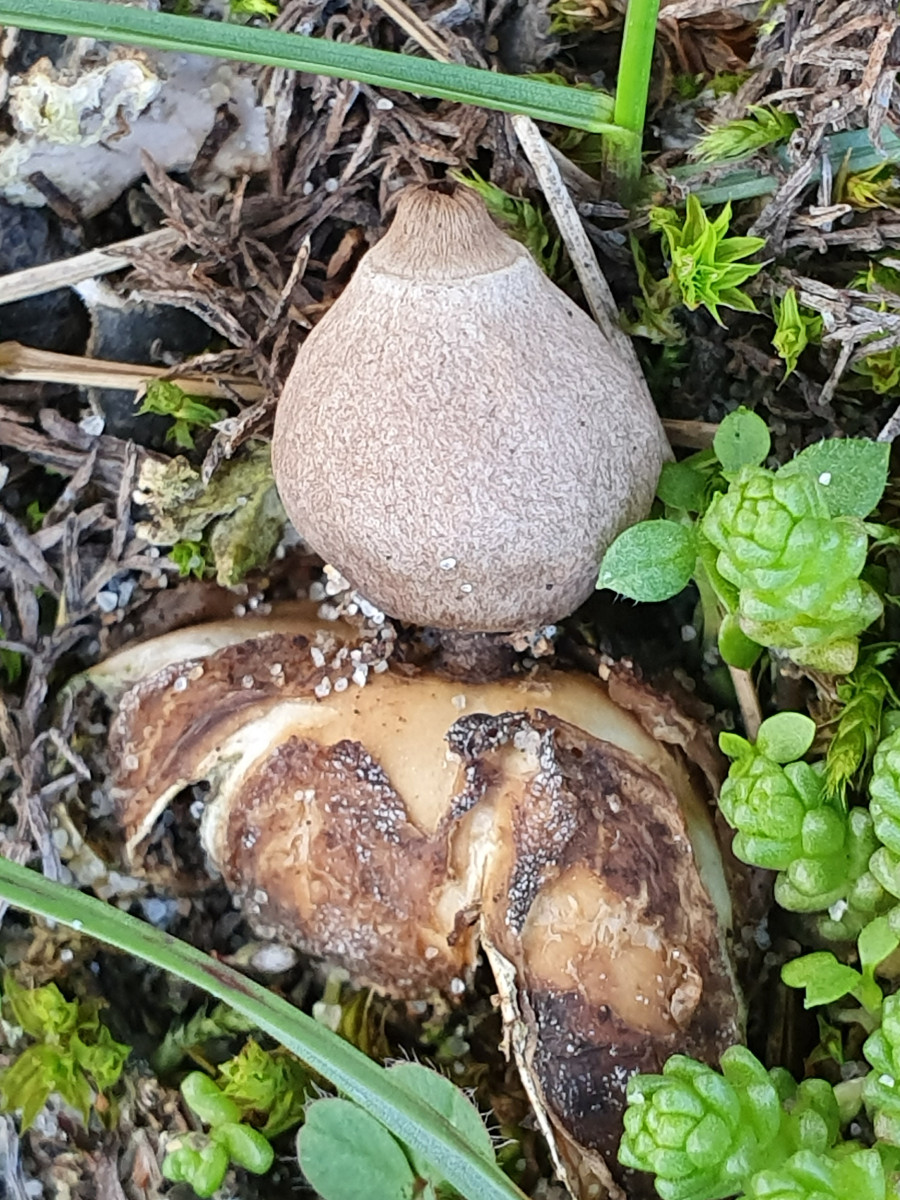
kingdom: Fungi
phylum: Basidiomycota
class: Agaricomycetes
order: Geastrales
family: Geastraceae
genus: Geastrum
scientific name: Geastrum minimum
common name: liden stjernebold
